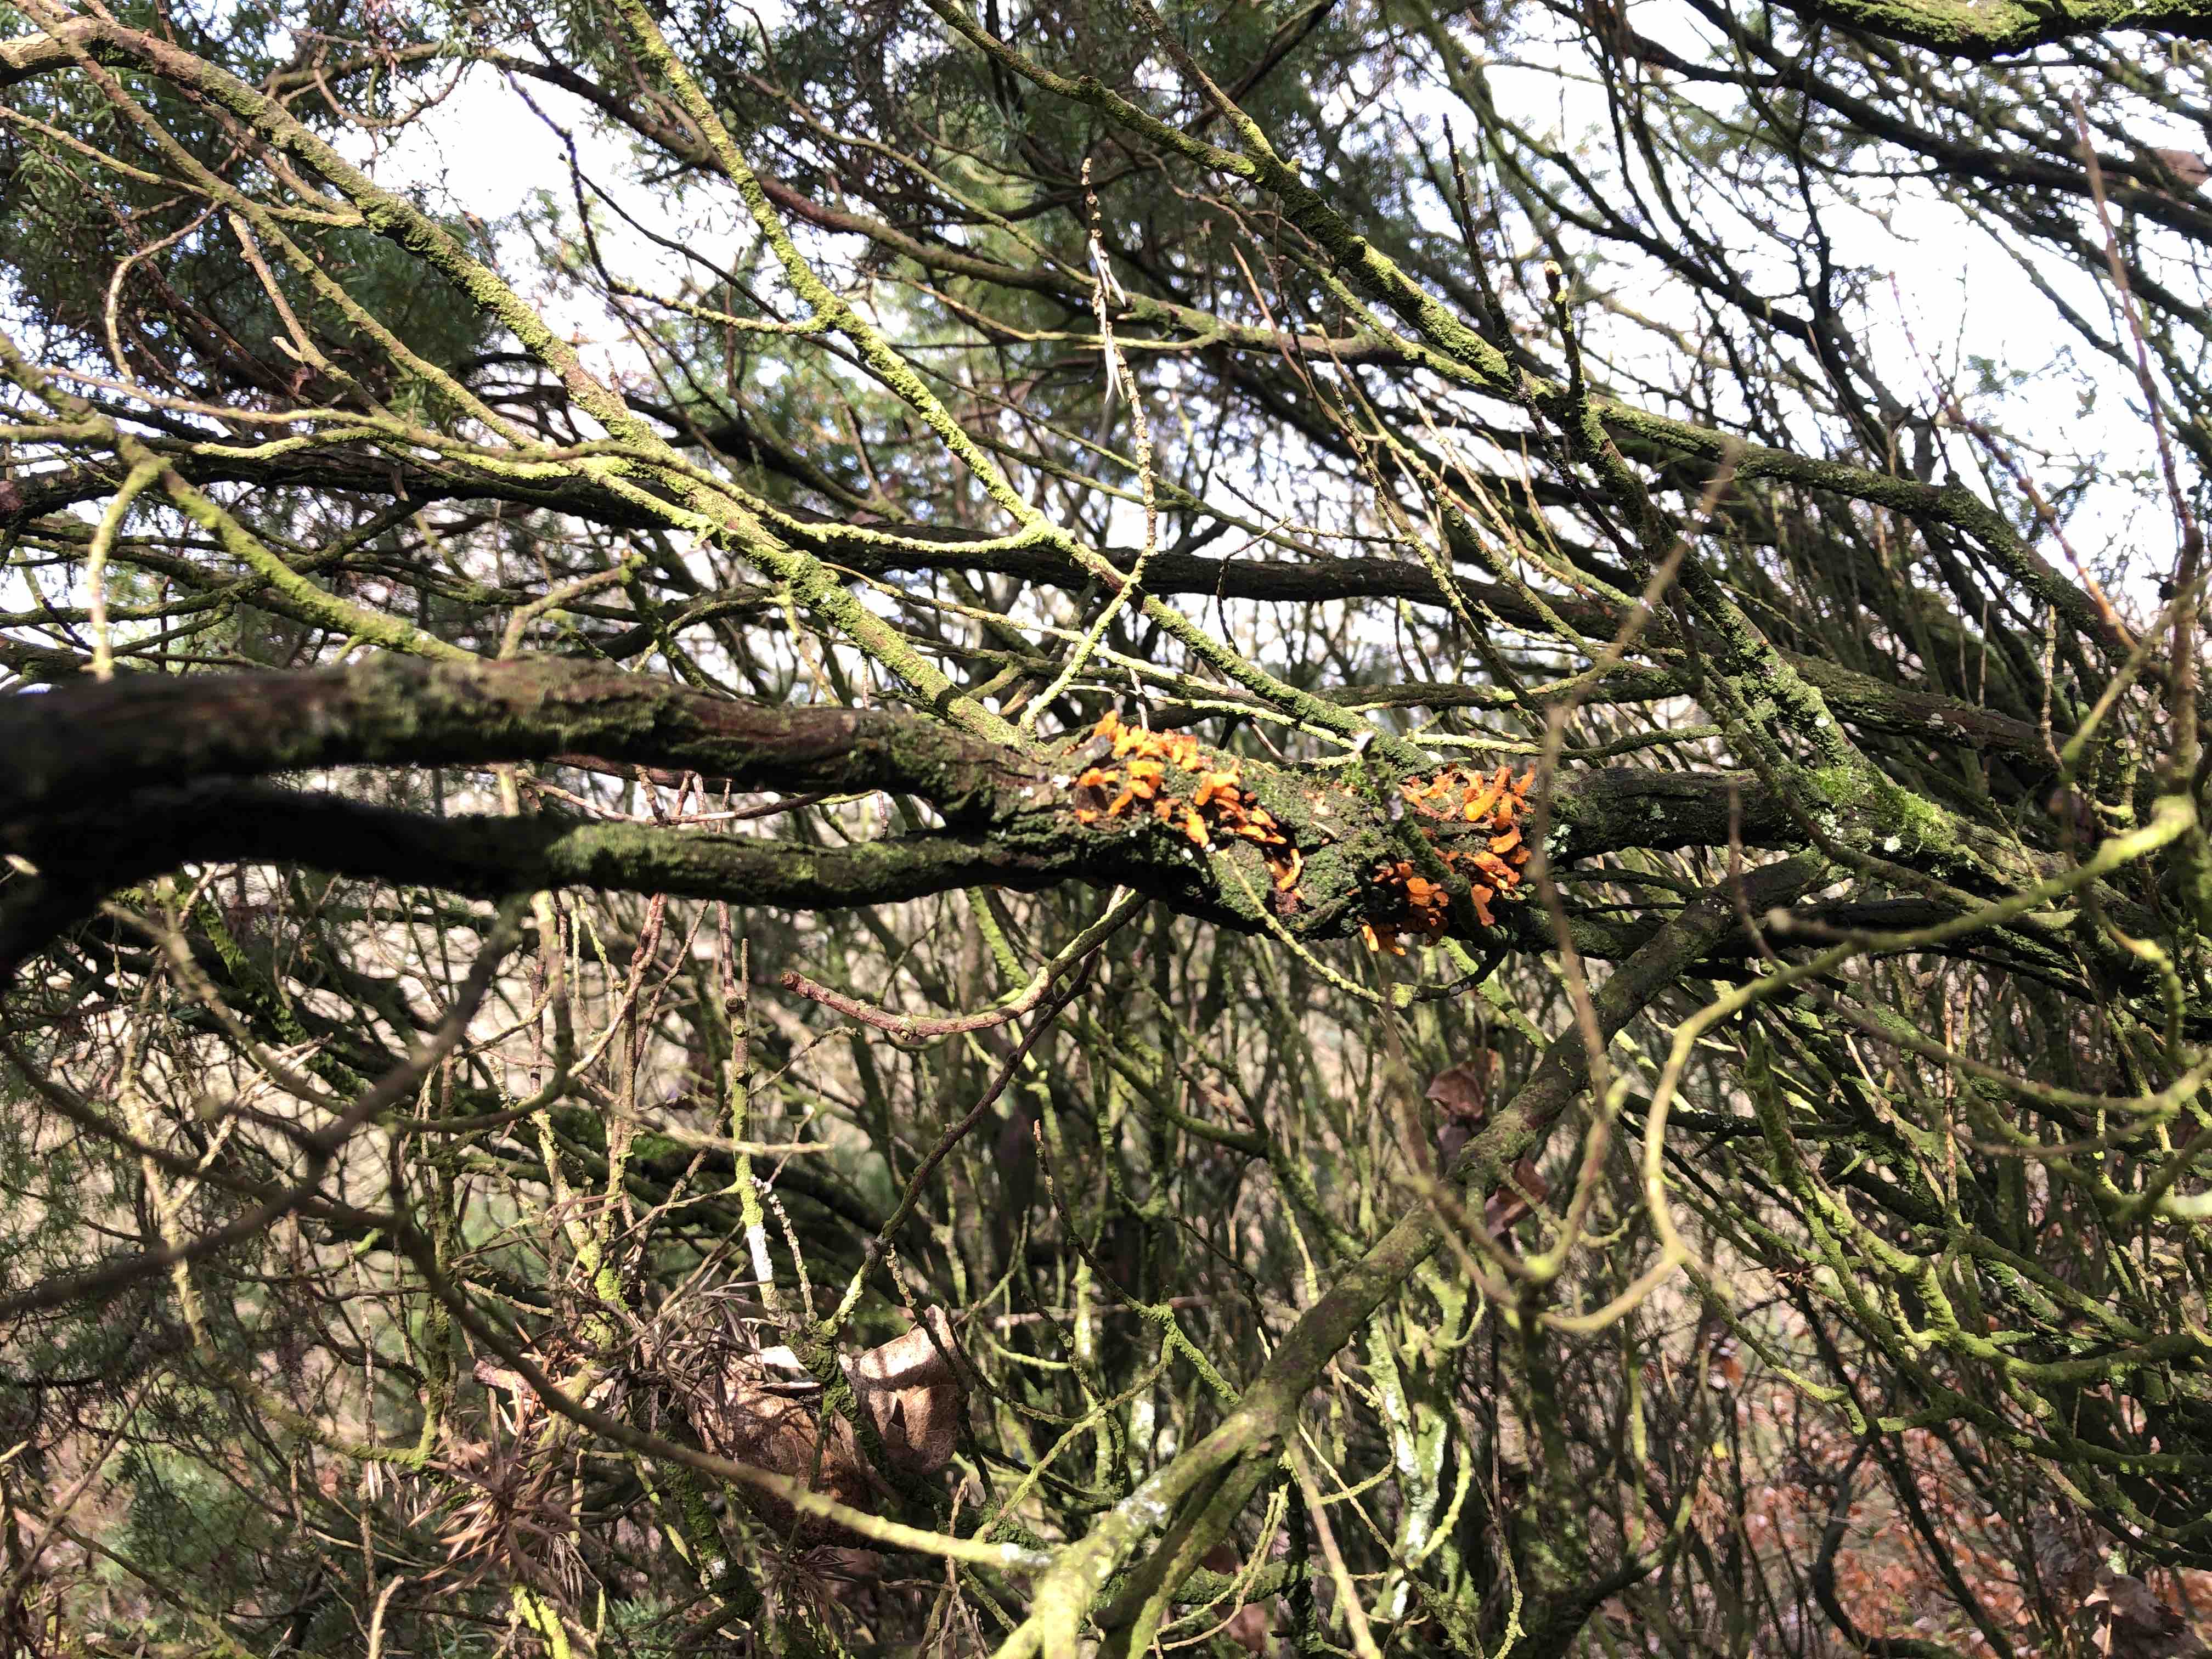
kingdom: Fungi
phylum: Basidiomycota
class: Pucciniomycetes
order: Pucciniales
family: Gymnosporangiaceae
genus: Gymnosporangium
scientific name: Gymnosporangium clavariiforme
